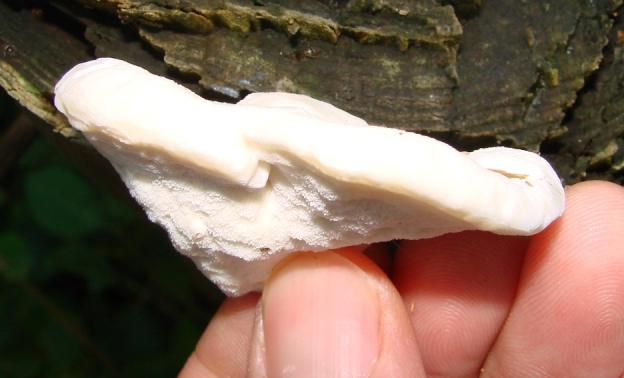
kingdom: Fungi
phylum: Basidiomycota
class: Agaricomycetes
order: Polyporales
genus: Amaropostia
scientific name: Amaropostia stiptica
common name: bitter kødporesvamp
